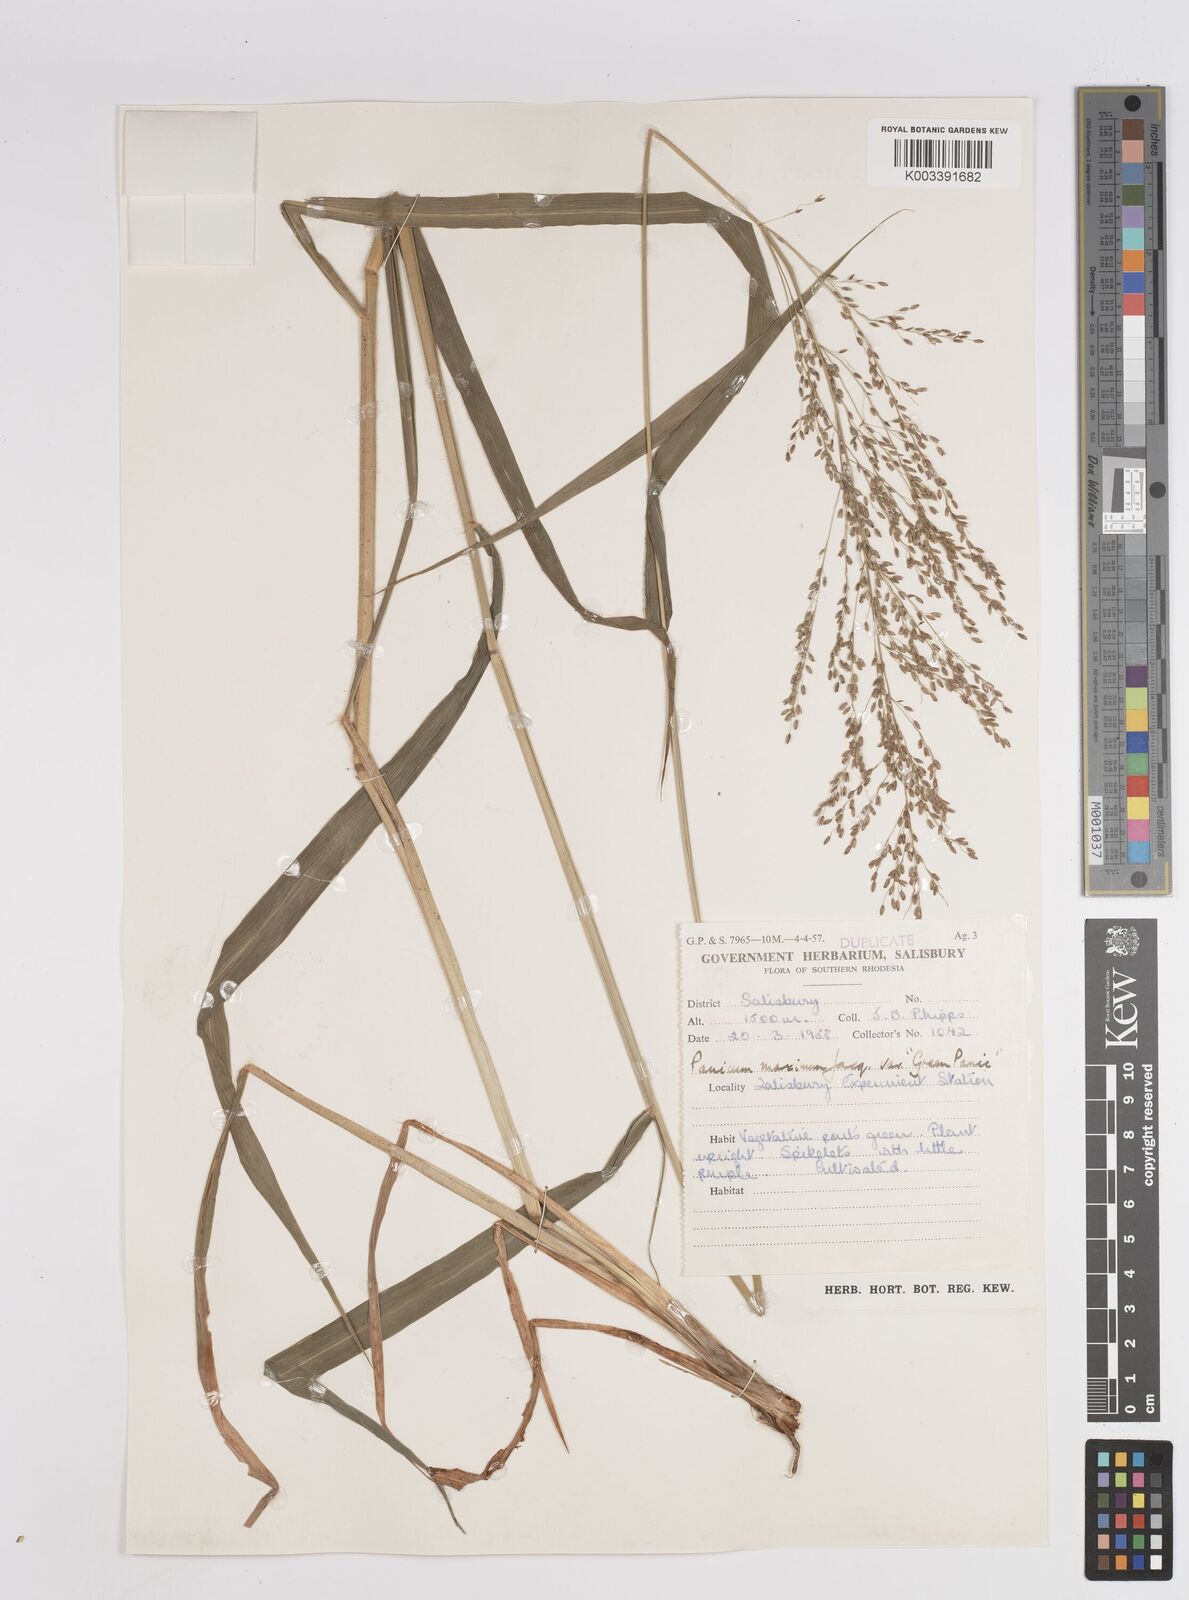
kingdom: Plantae
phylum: Tracheophyta
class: Liliopsida
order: Poales
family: Poaceae
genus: Megathyrsus
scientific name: Megathyrsus maximus
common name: Guineagrass
